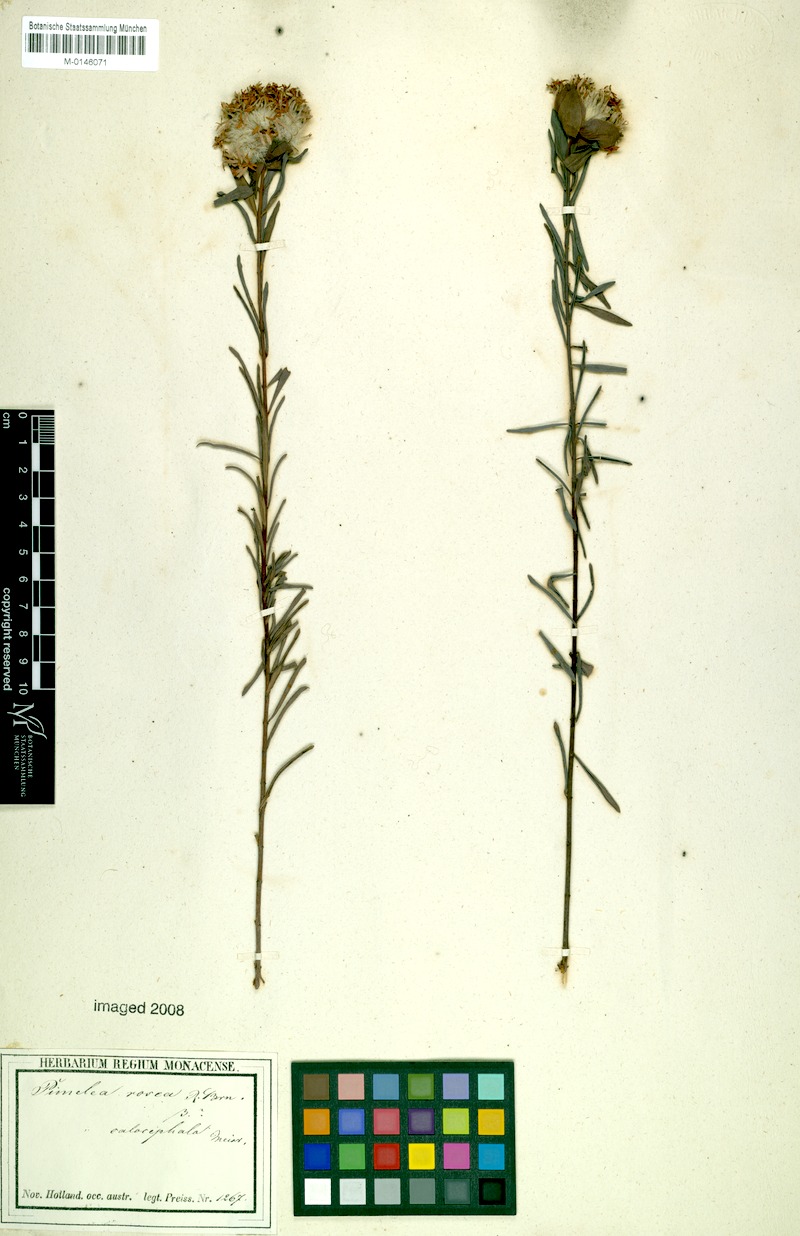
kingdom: Plantae
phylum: Tracheophyta
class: Magnoliopsida
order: Malvales
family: Thymelaeaceae
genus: Pimelea
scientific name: Pimelea rosea
